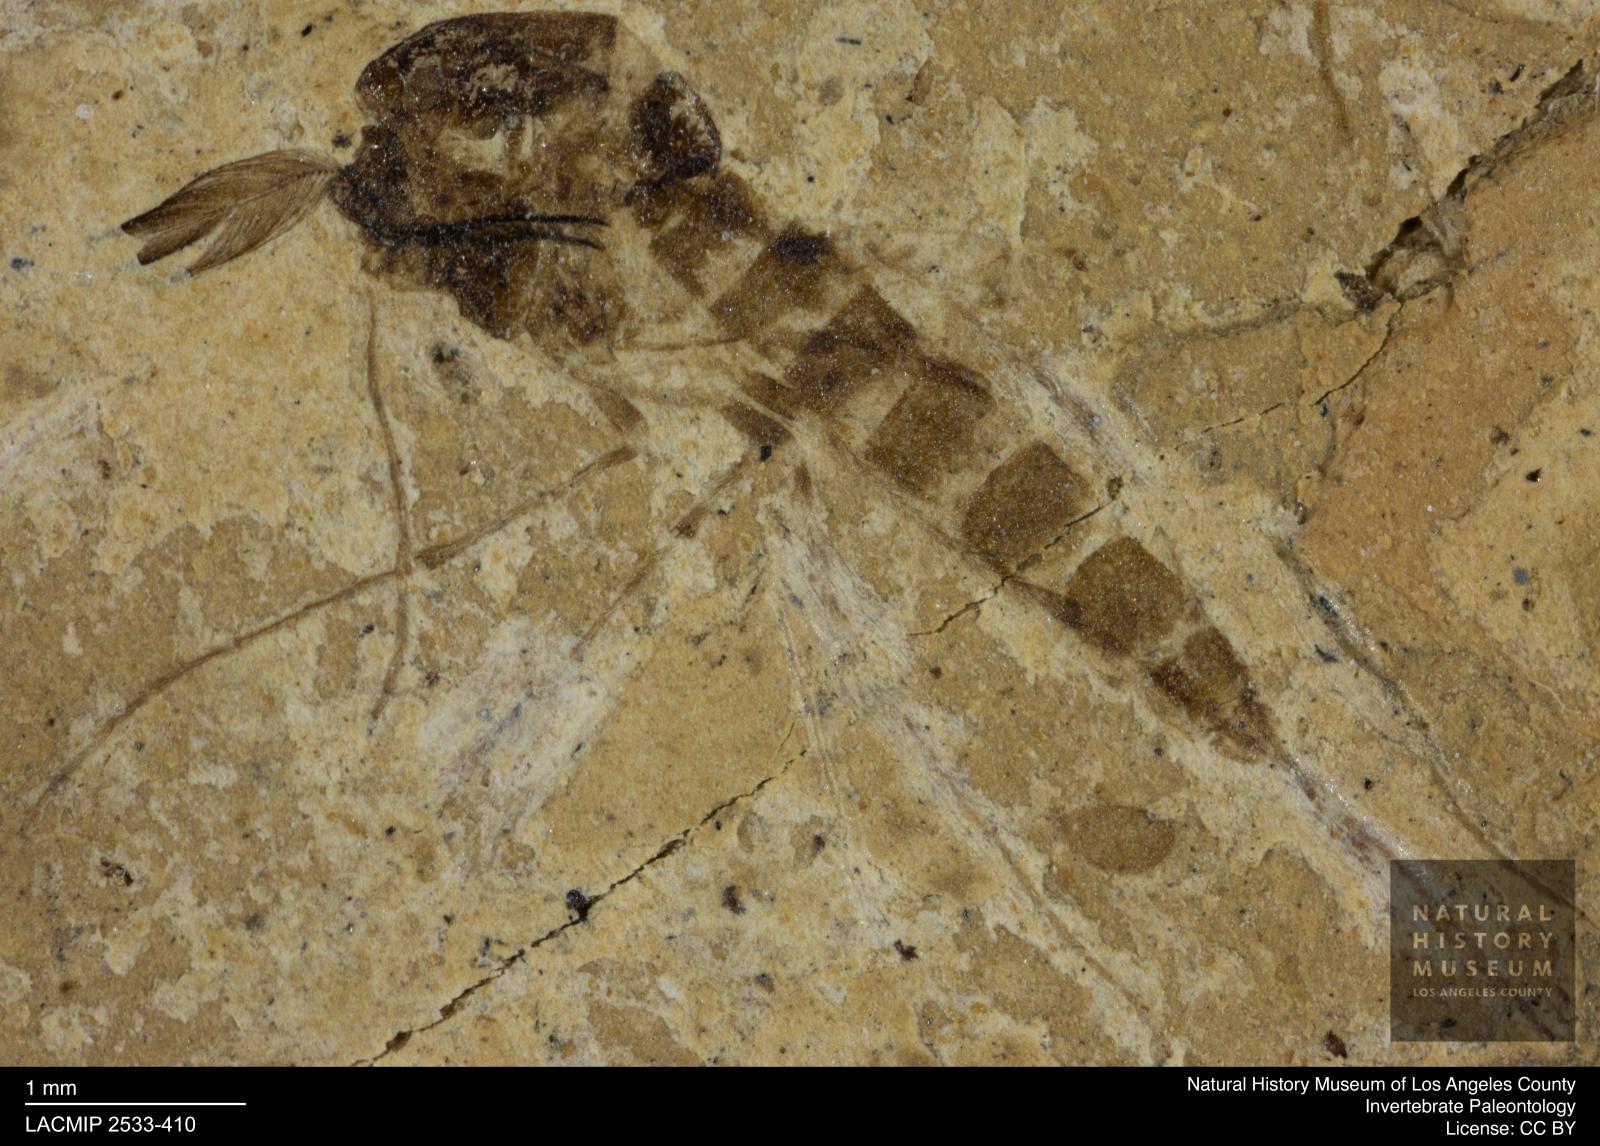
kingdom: Animalia
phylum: Arthropoda
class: Insecta
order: Diptera
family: Chironomidae
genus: Tanypus
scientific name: Tanypus dorminans
